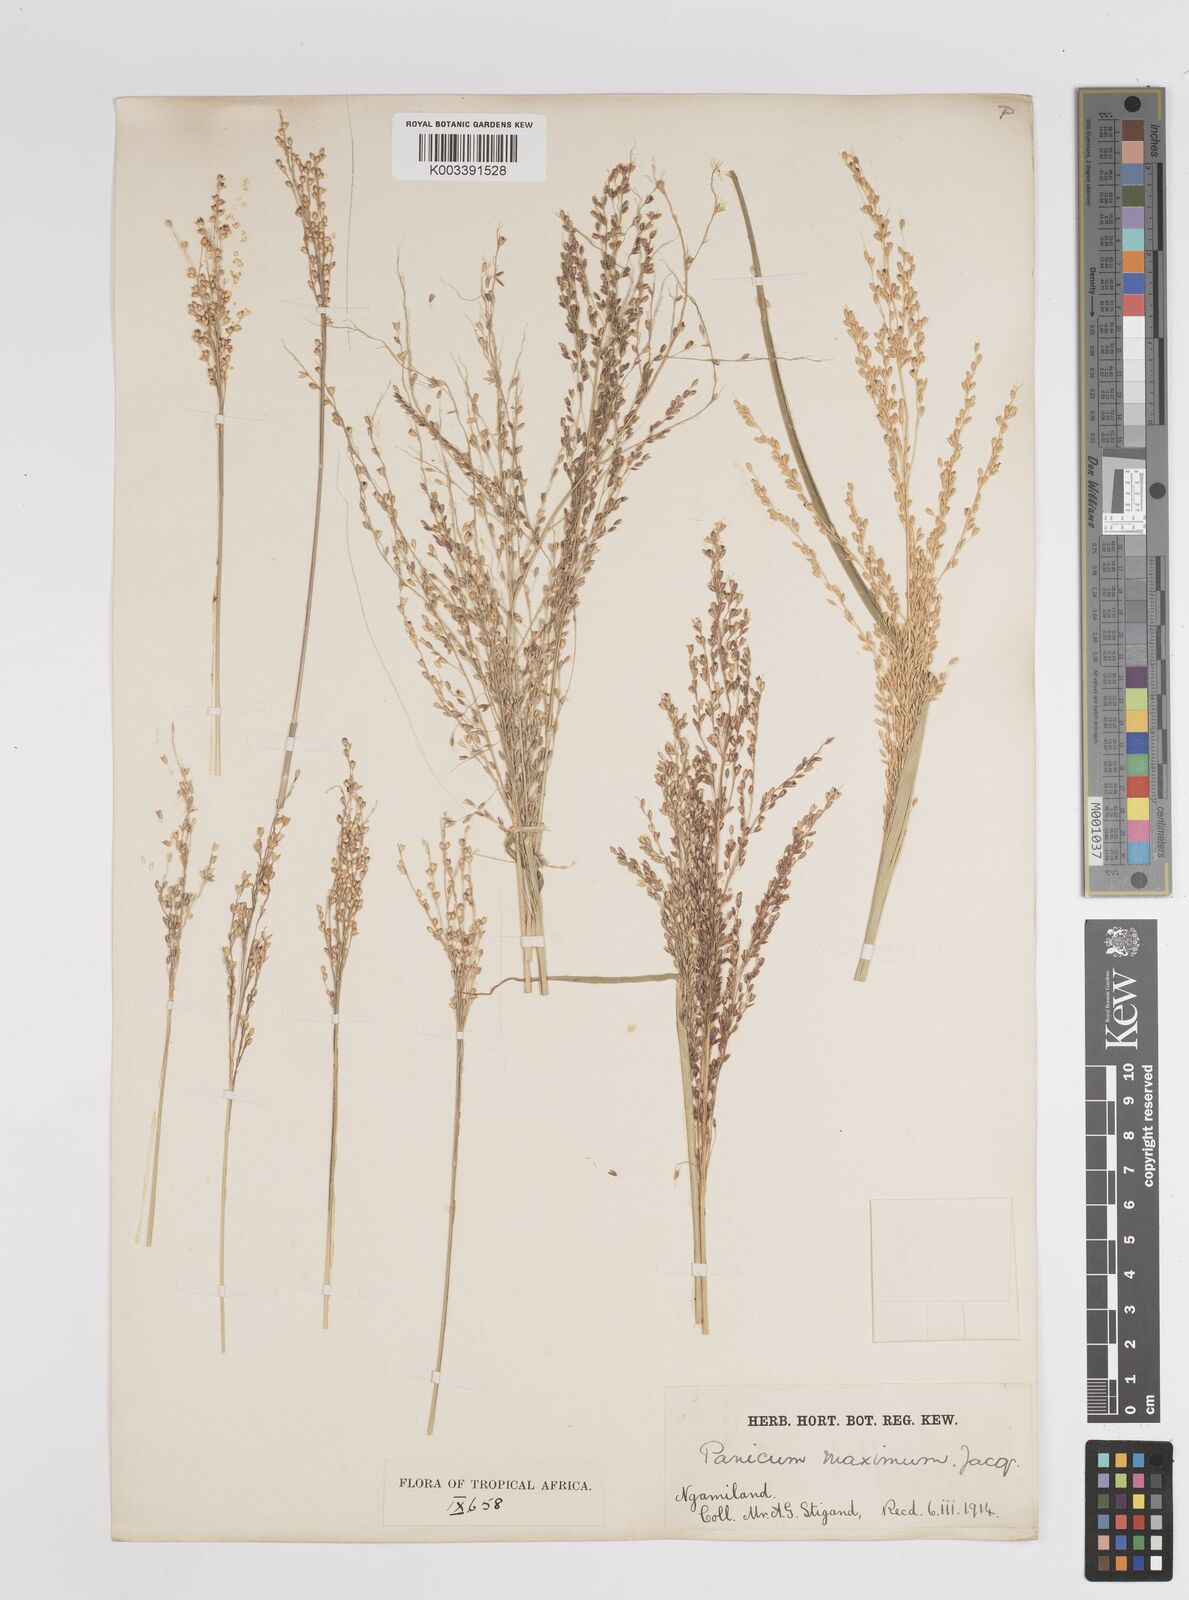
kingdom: Plantae
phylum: Tracheophyta
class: Liliopsida
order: Poales
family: Poaceae
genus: Megathyrsus
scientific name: Megathyrsus maximus
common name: Guineagrass
